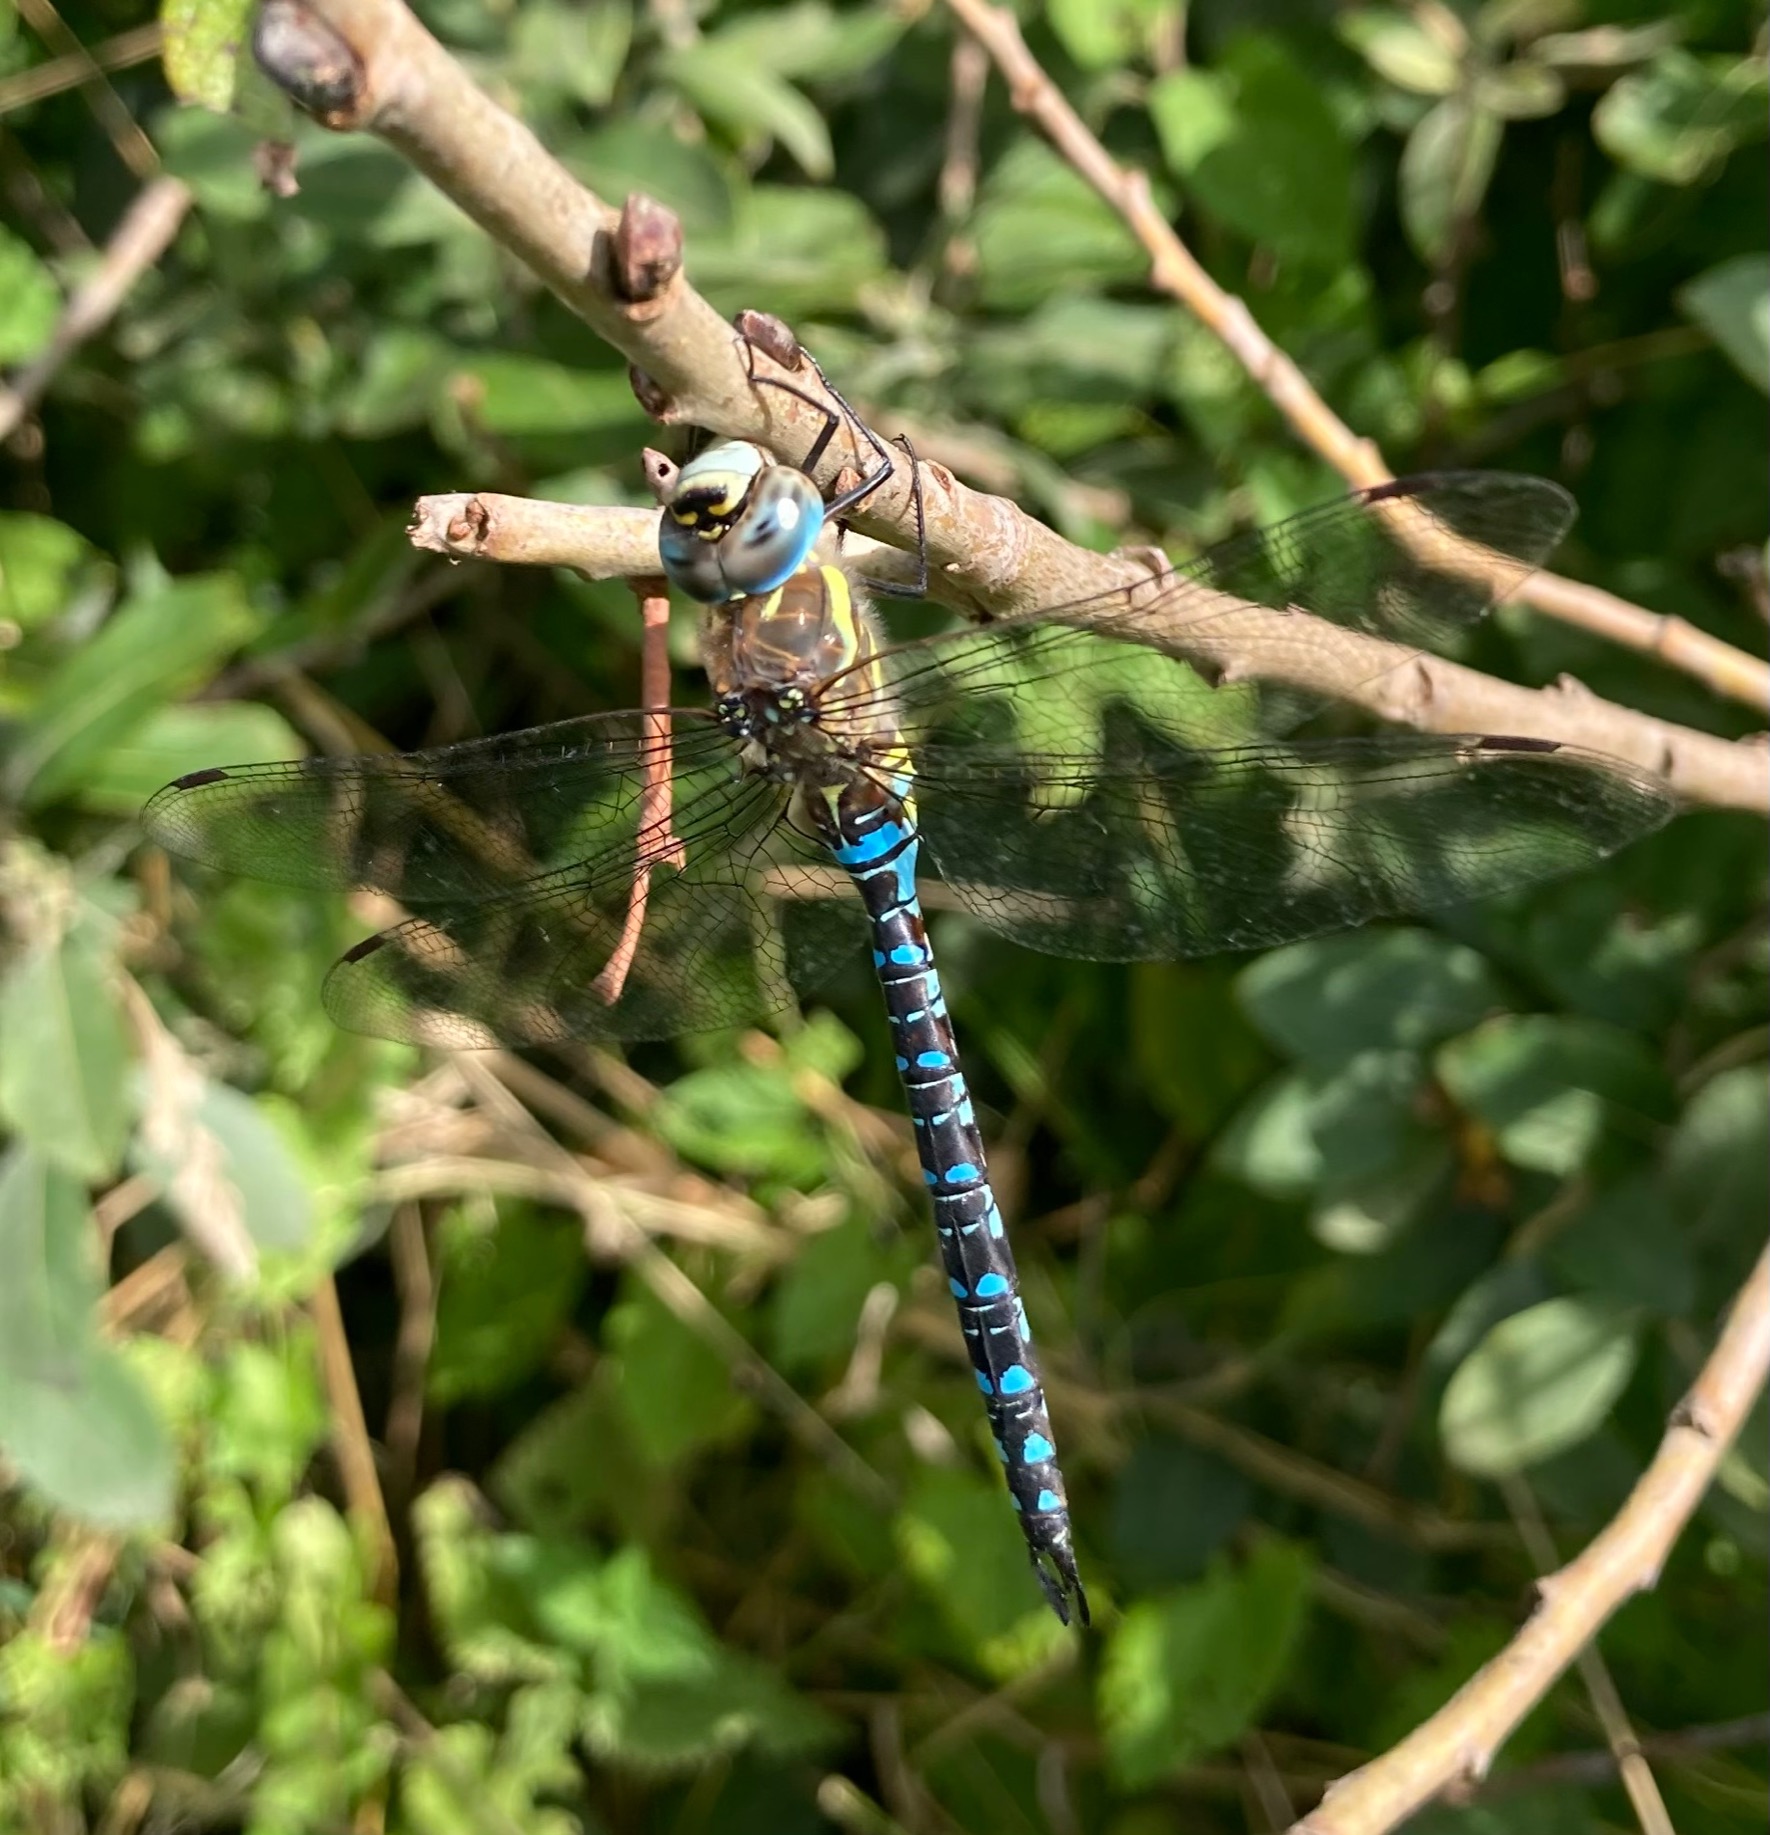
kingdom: Animalia
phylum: Arthropoda
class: Insecta
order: Odonata
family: Aeshnidae
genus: Aeshna
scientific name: Aeshna mixta
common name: Efterårs-mosaikguldsmed
